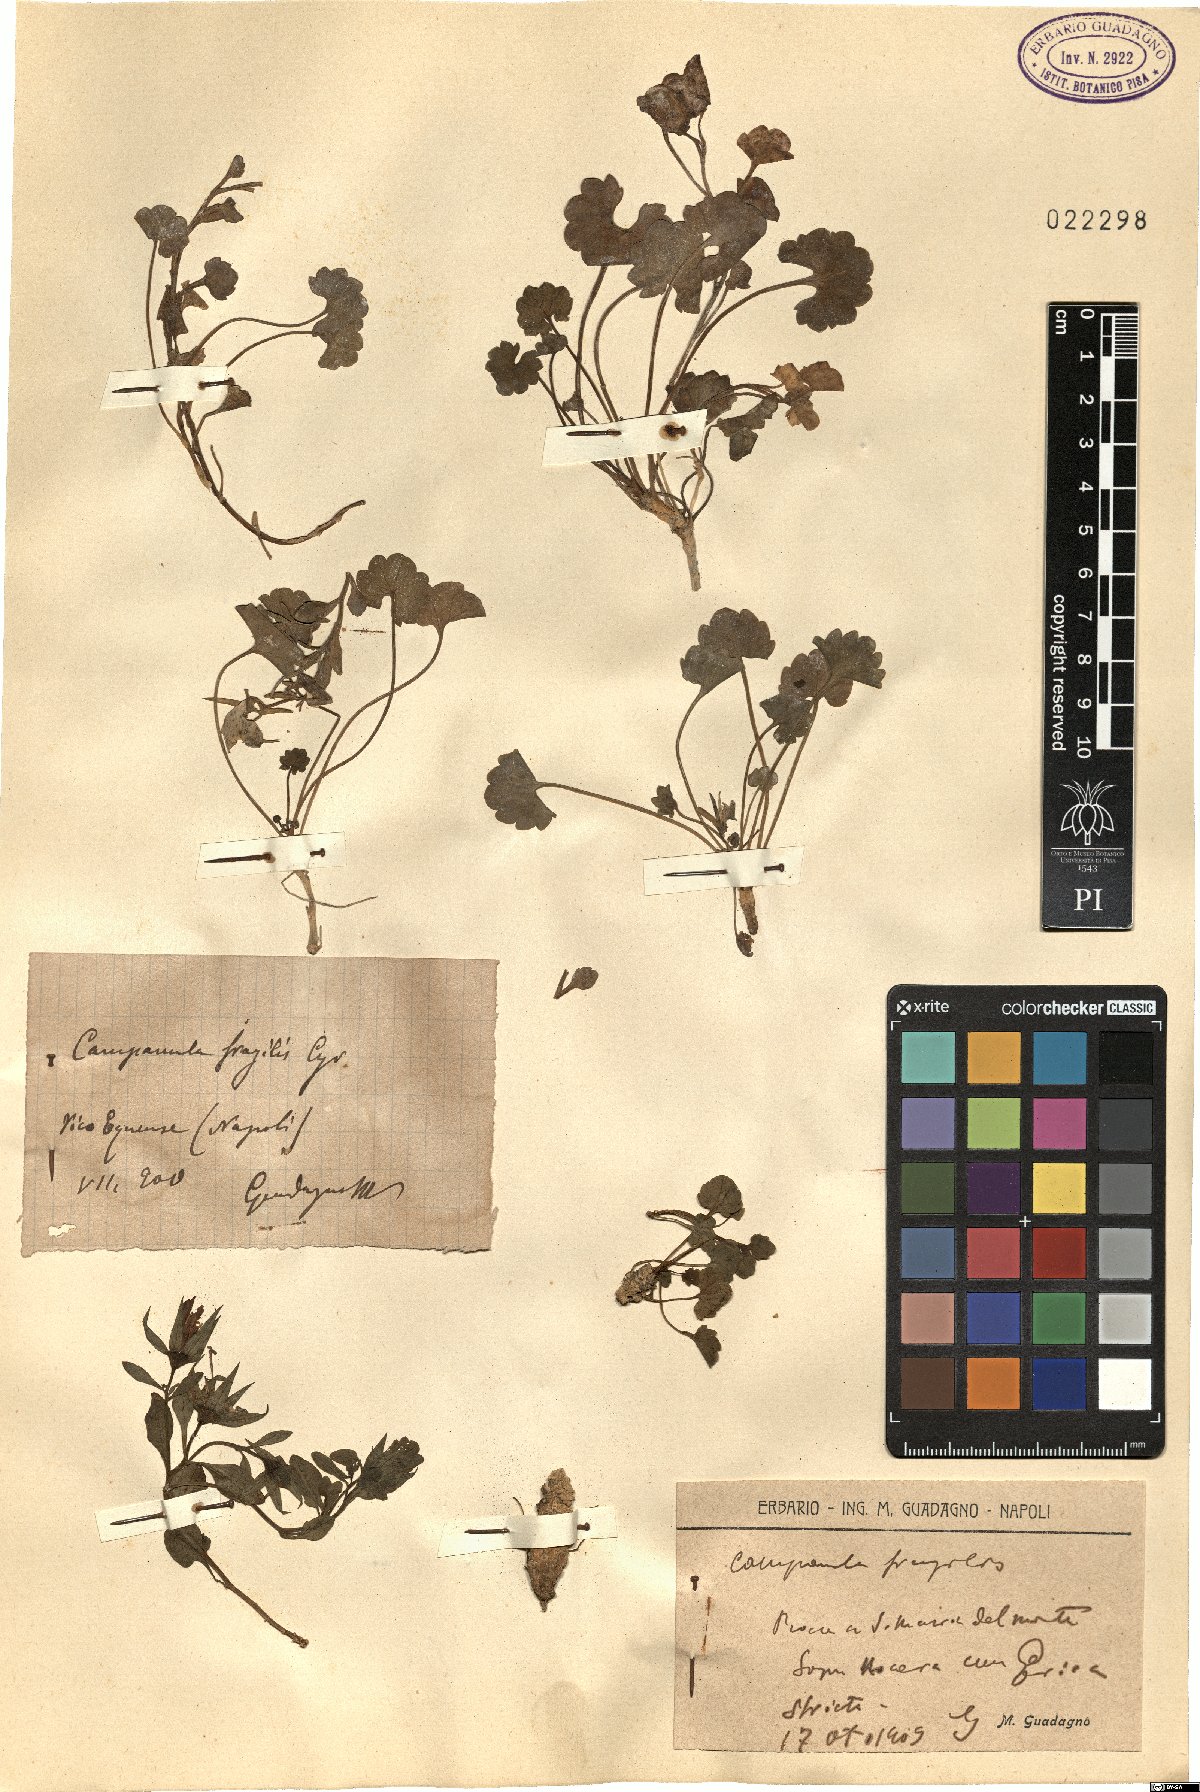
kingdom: Plantae
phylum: Tracheophyta
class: Magnoliopsida
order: Asterales
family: Campanulaceae
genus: Campanula
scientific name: Campanula fragilis
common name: Italian bellflower
